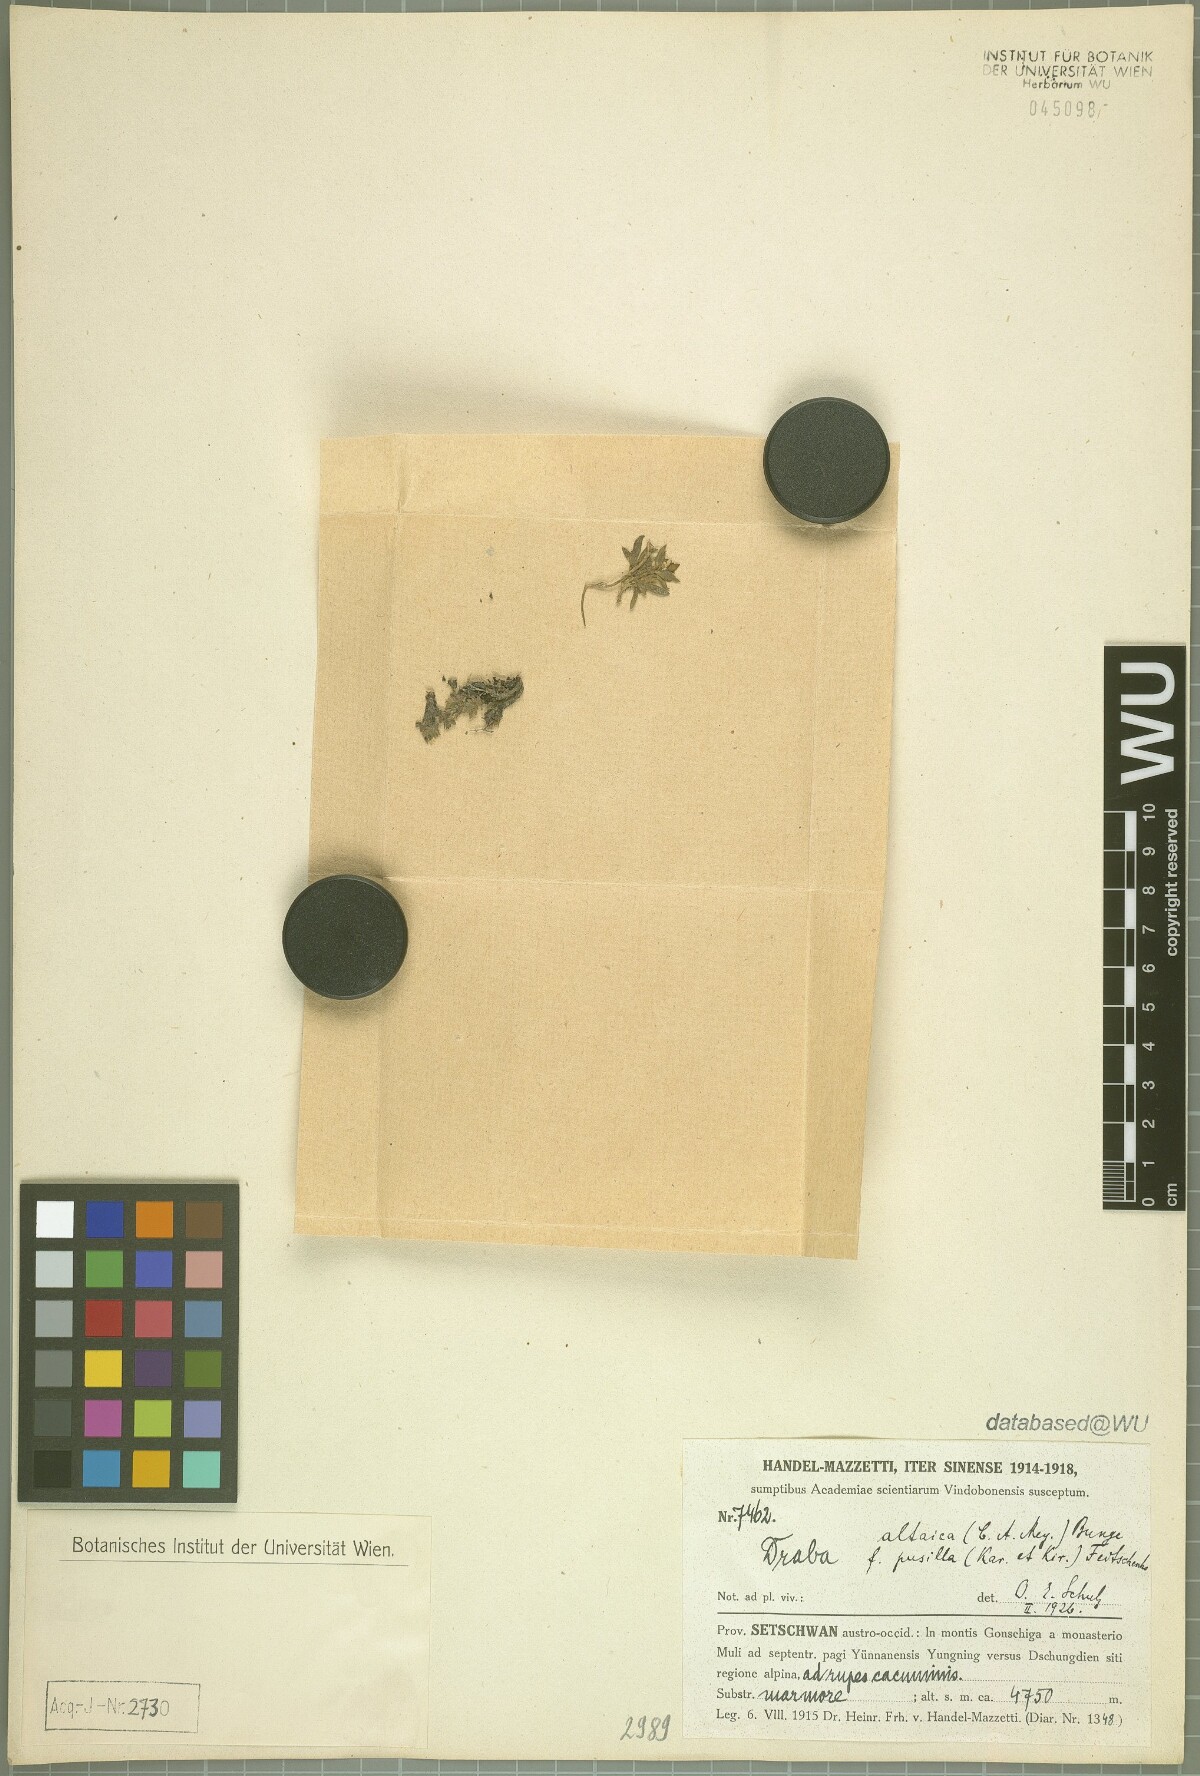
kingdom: Plantae
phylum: Tracheophyta
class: Magnoliopsida
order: Brassicales
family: Brassicaceae
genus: Draba
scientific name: Draba altaica
